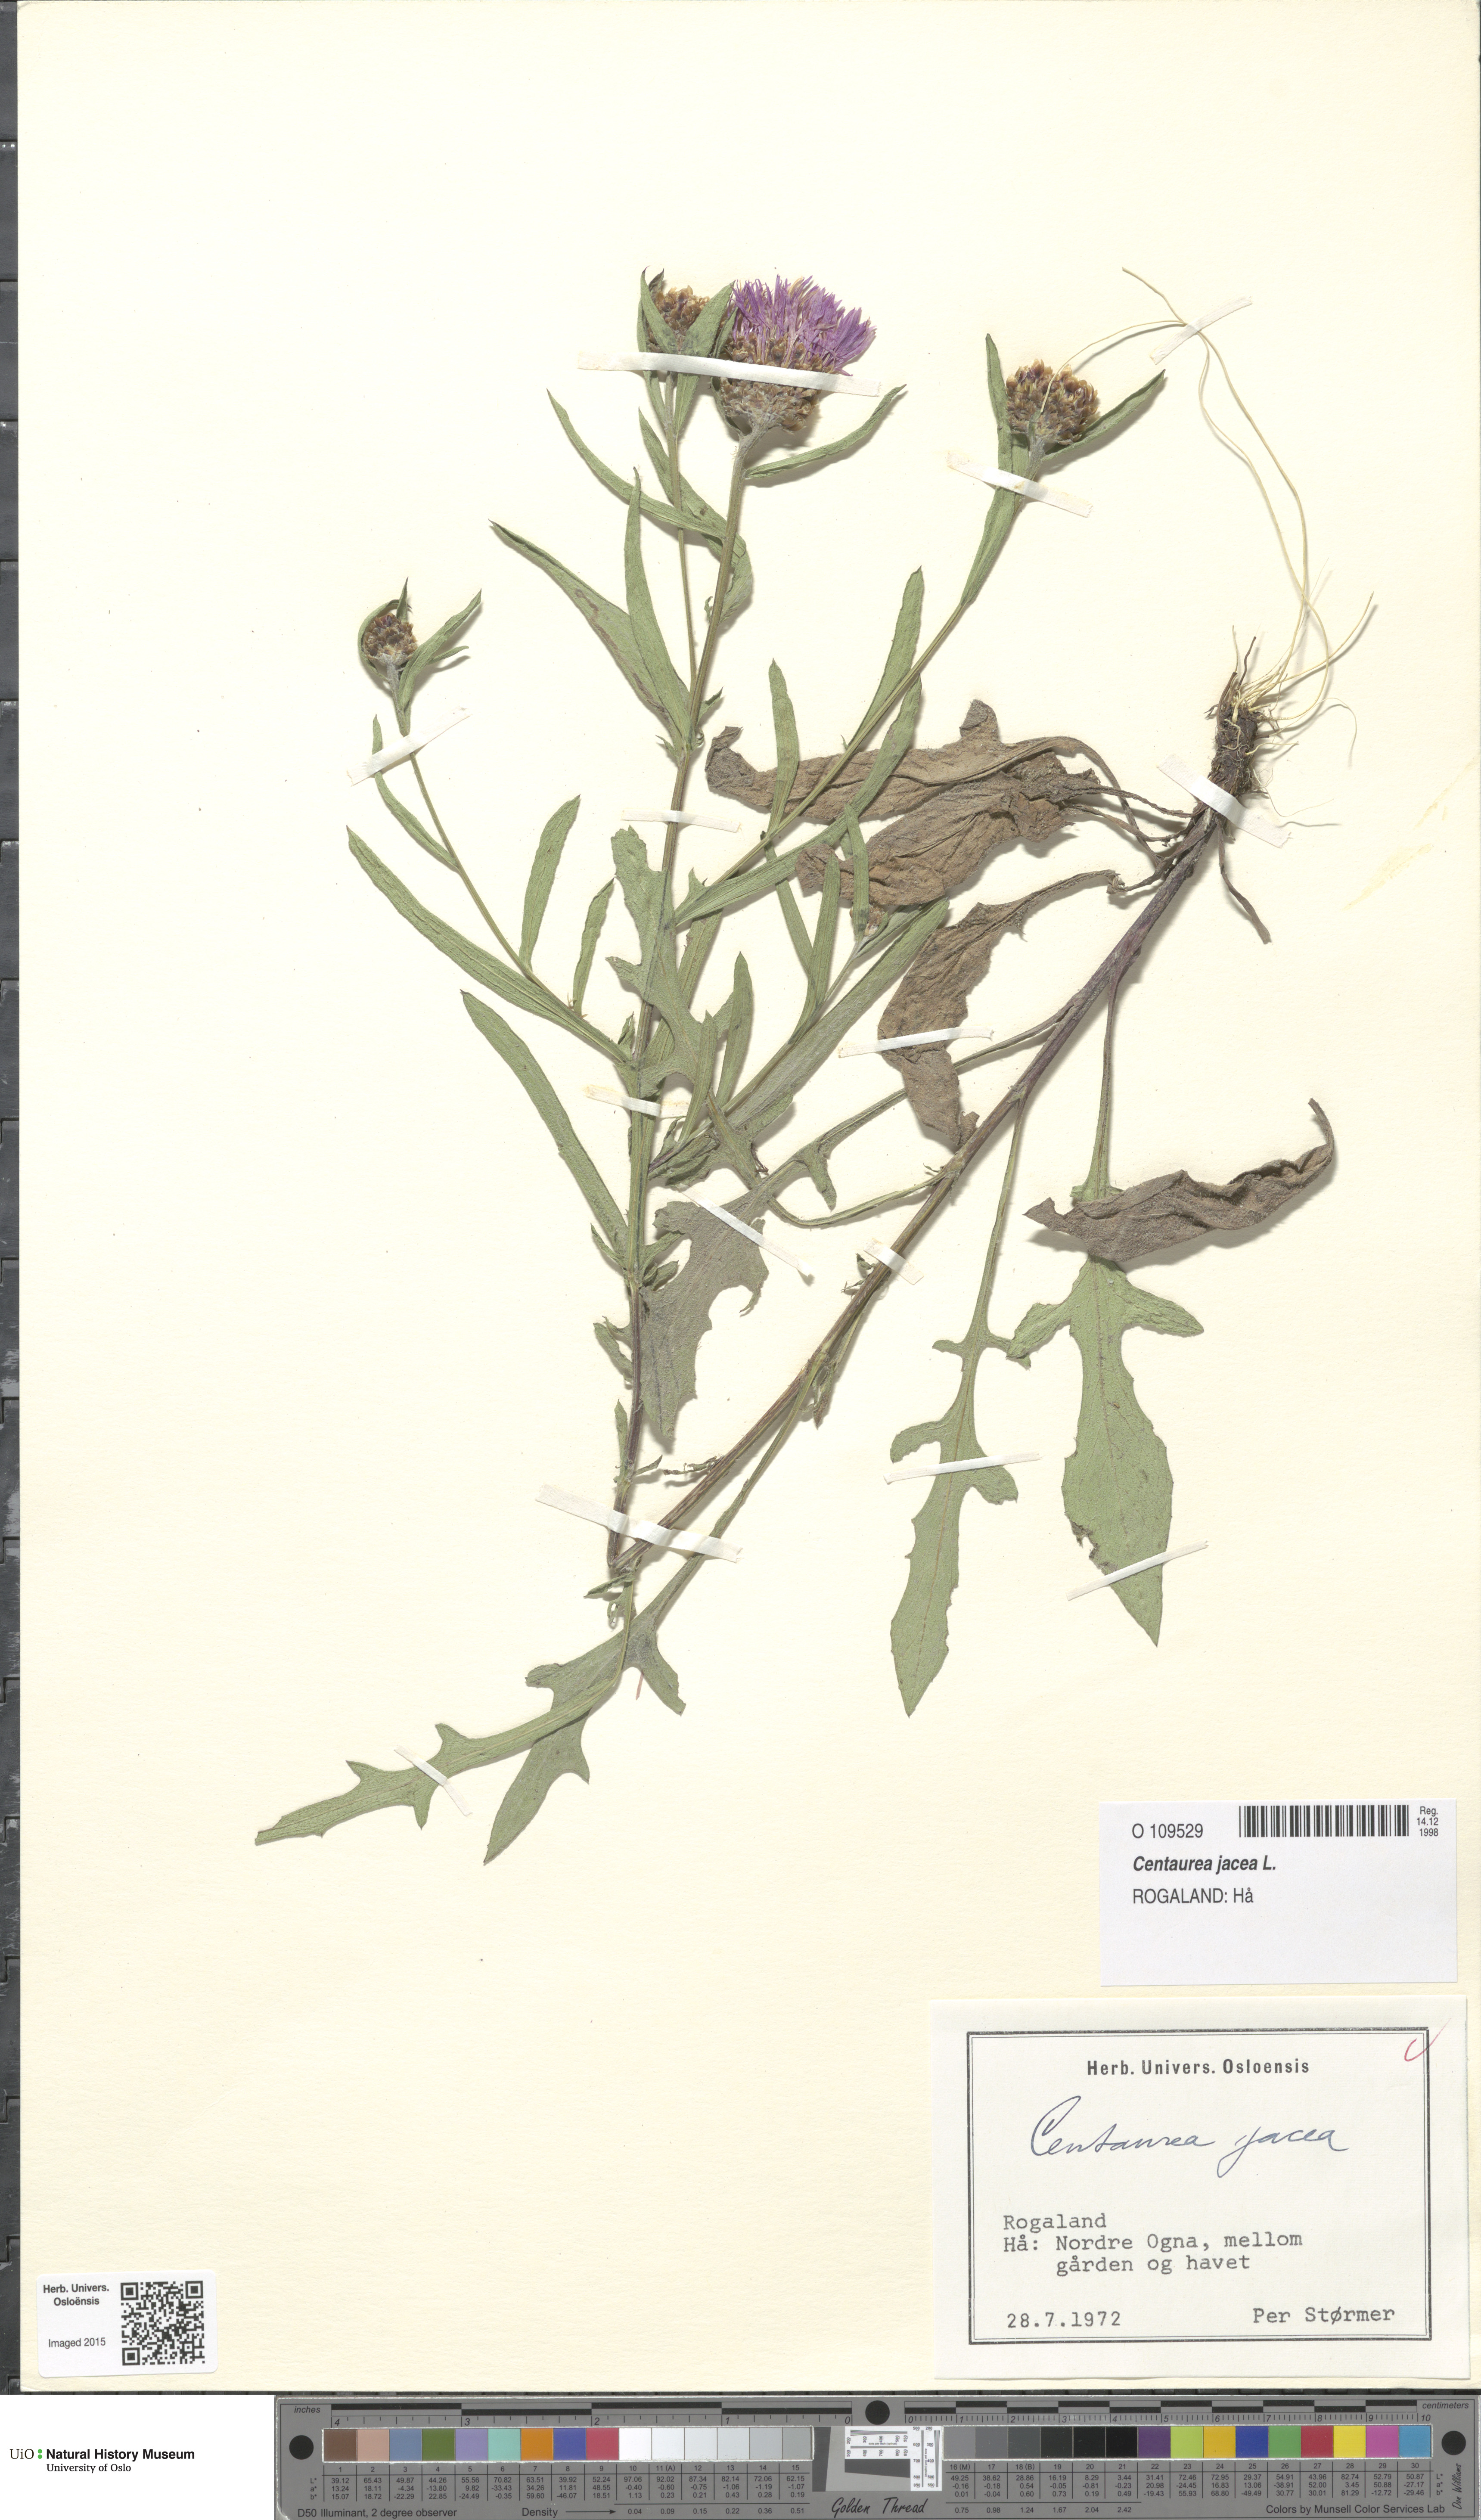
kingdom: Plantae
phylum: Tracheophyta
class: Magnoliopsida
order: Asterales
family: Asteraceae
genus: Centaurea
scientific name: Centaurea jacea
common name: Brown knapweed
